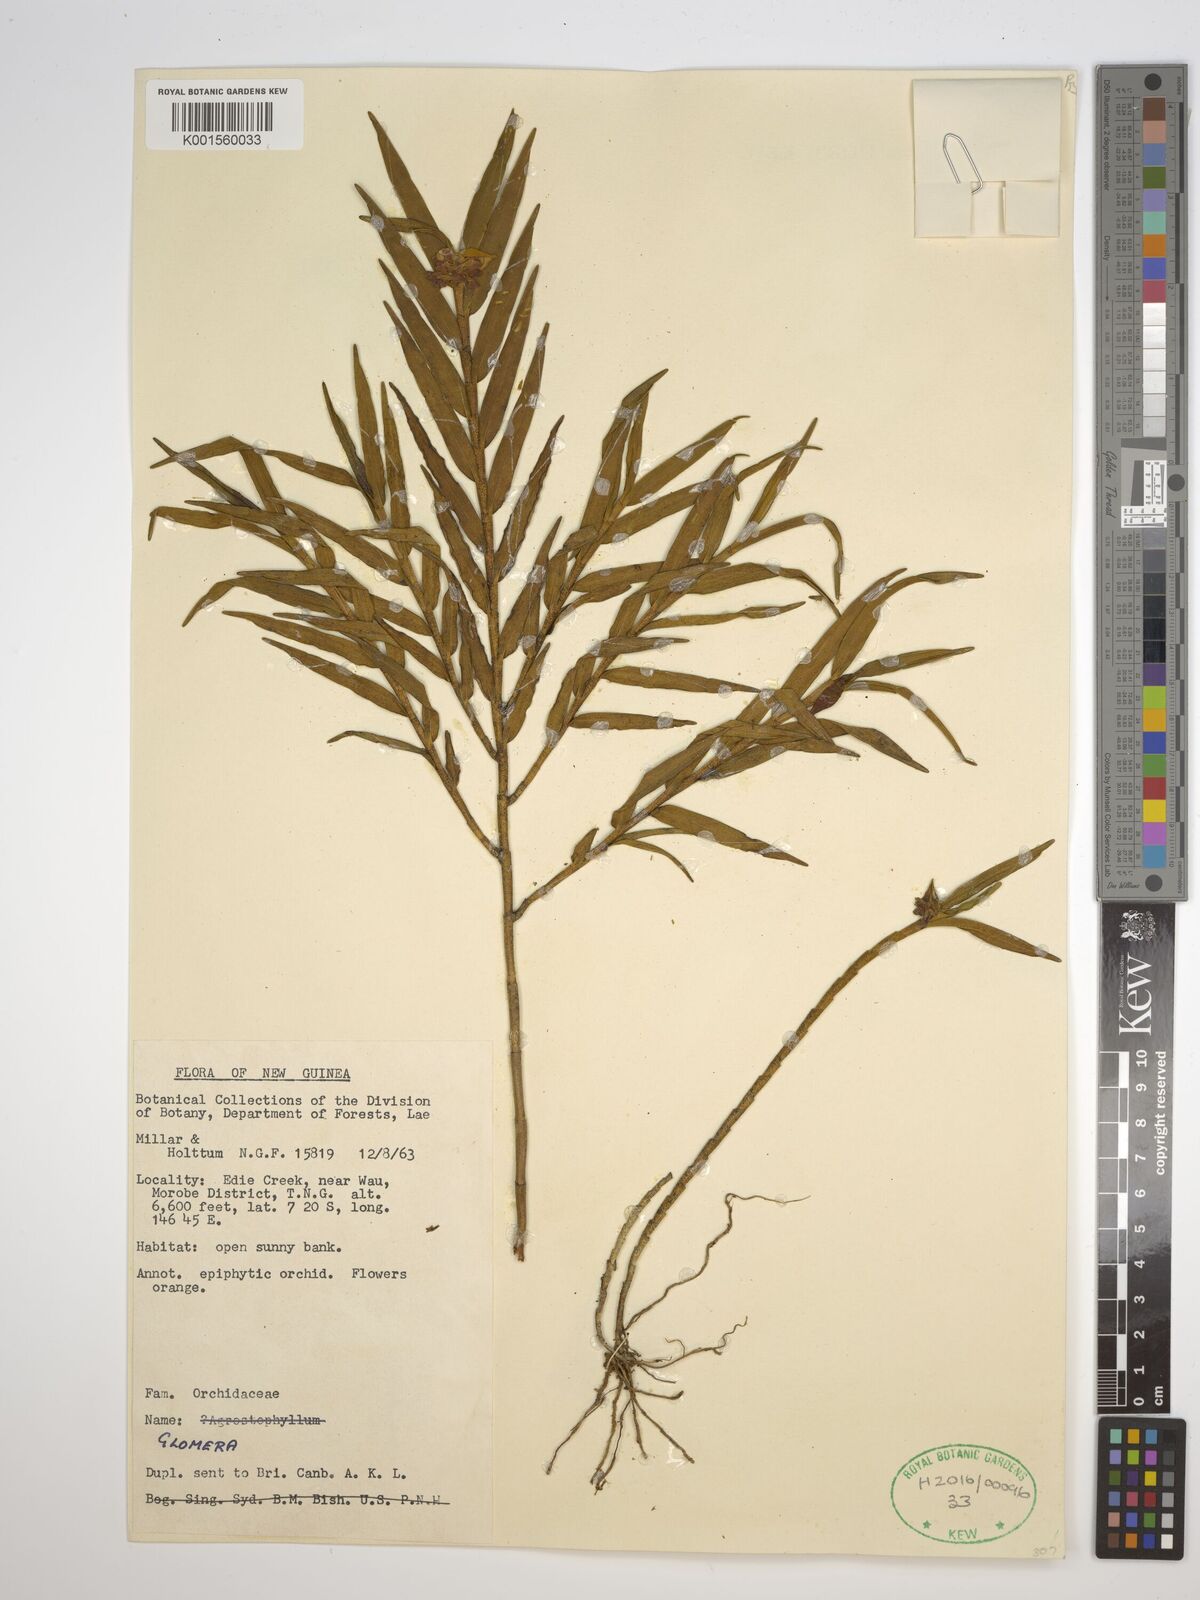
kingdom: Plantae
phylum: Tracheophyta
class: Liliopsida
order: Asparagales
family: Orchidaceae
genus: Glomera
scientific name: Glomera
